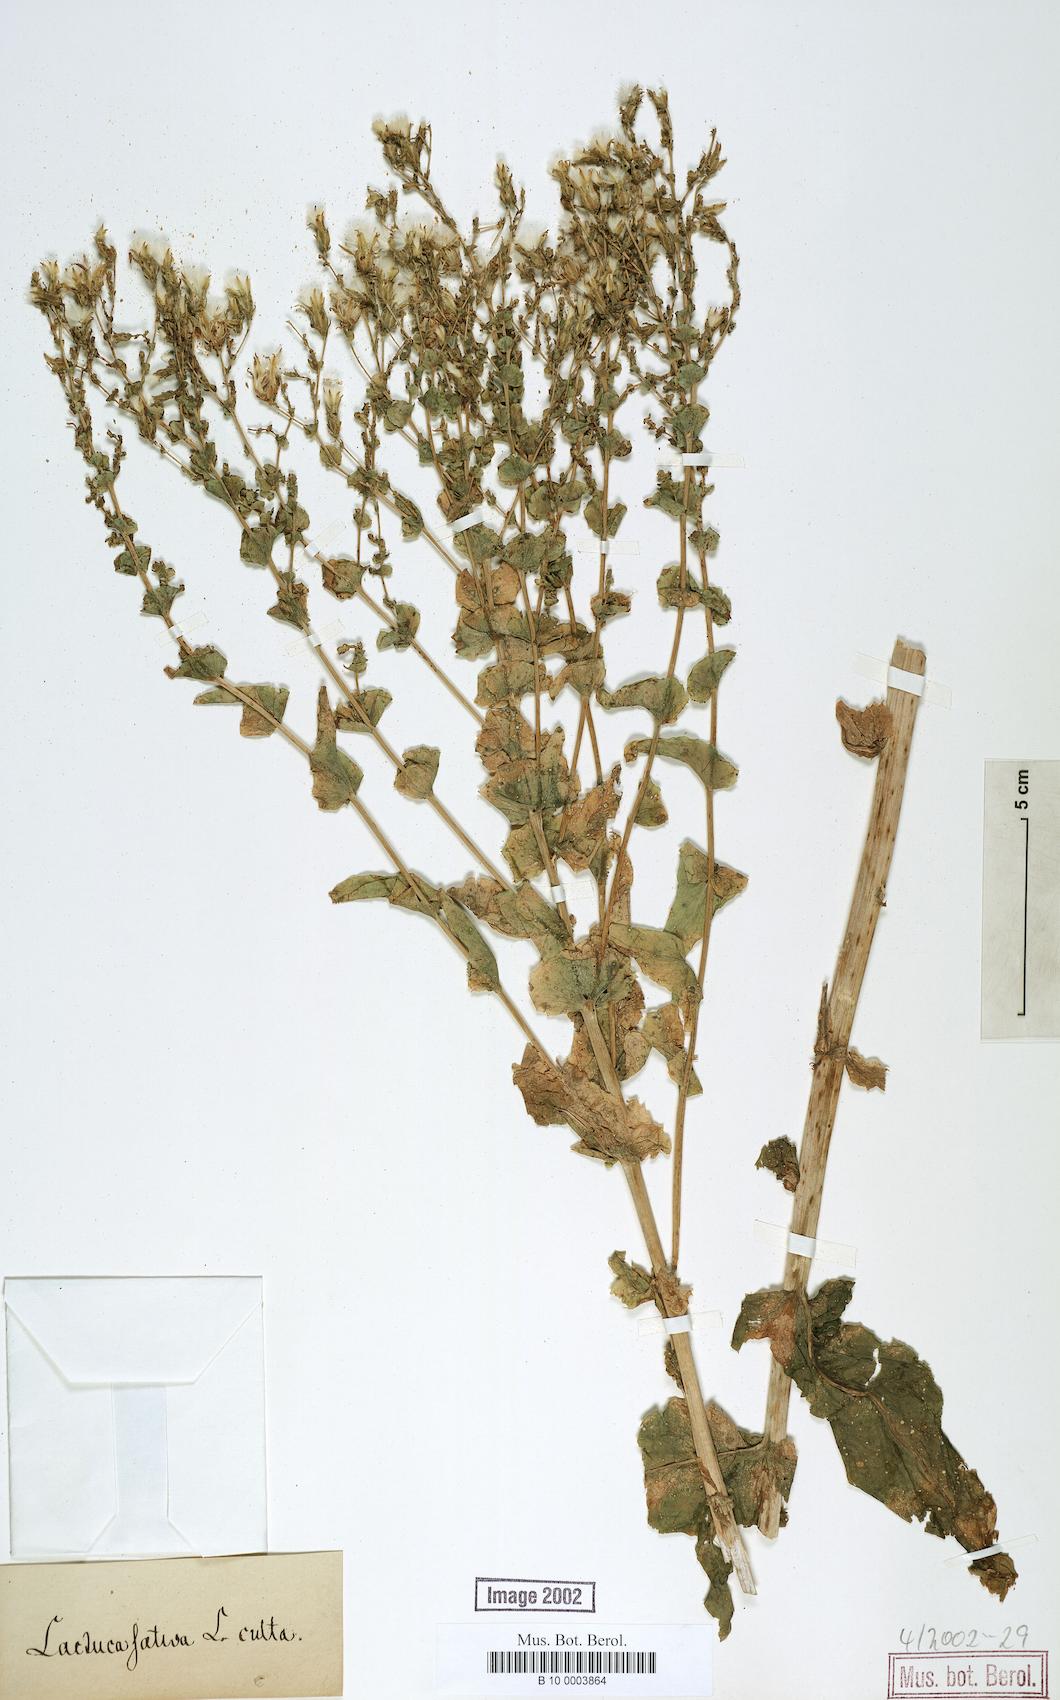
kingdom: Plantae
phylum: Tracheophyta
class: Magnoliopsida
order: Asterales
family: Asteraceae
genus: Lactuca
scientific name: Lactuca sativa
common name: Garden lettuce
